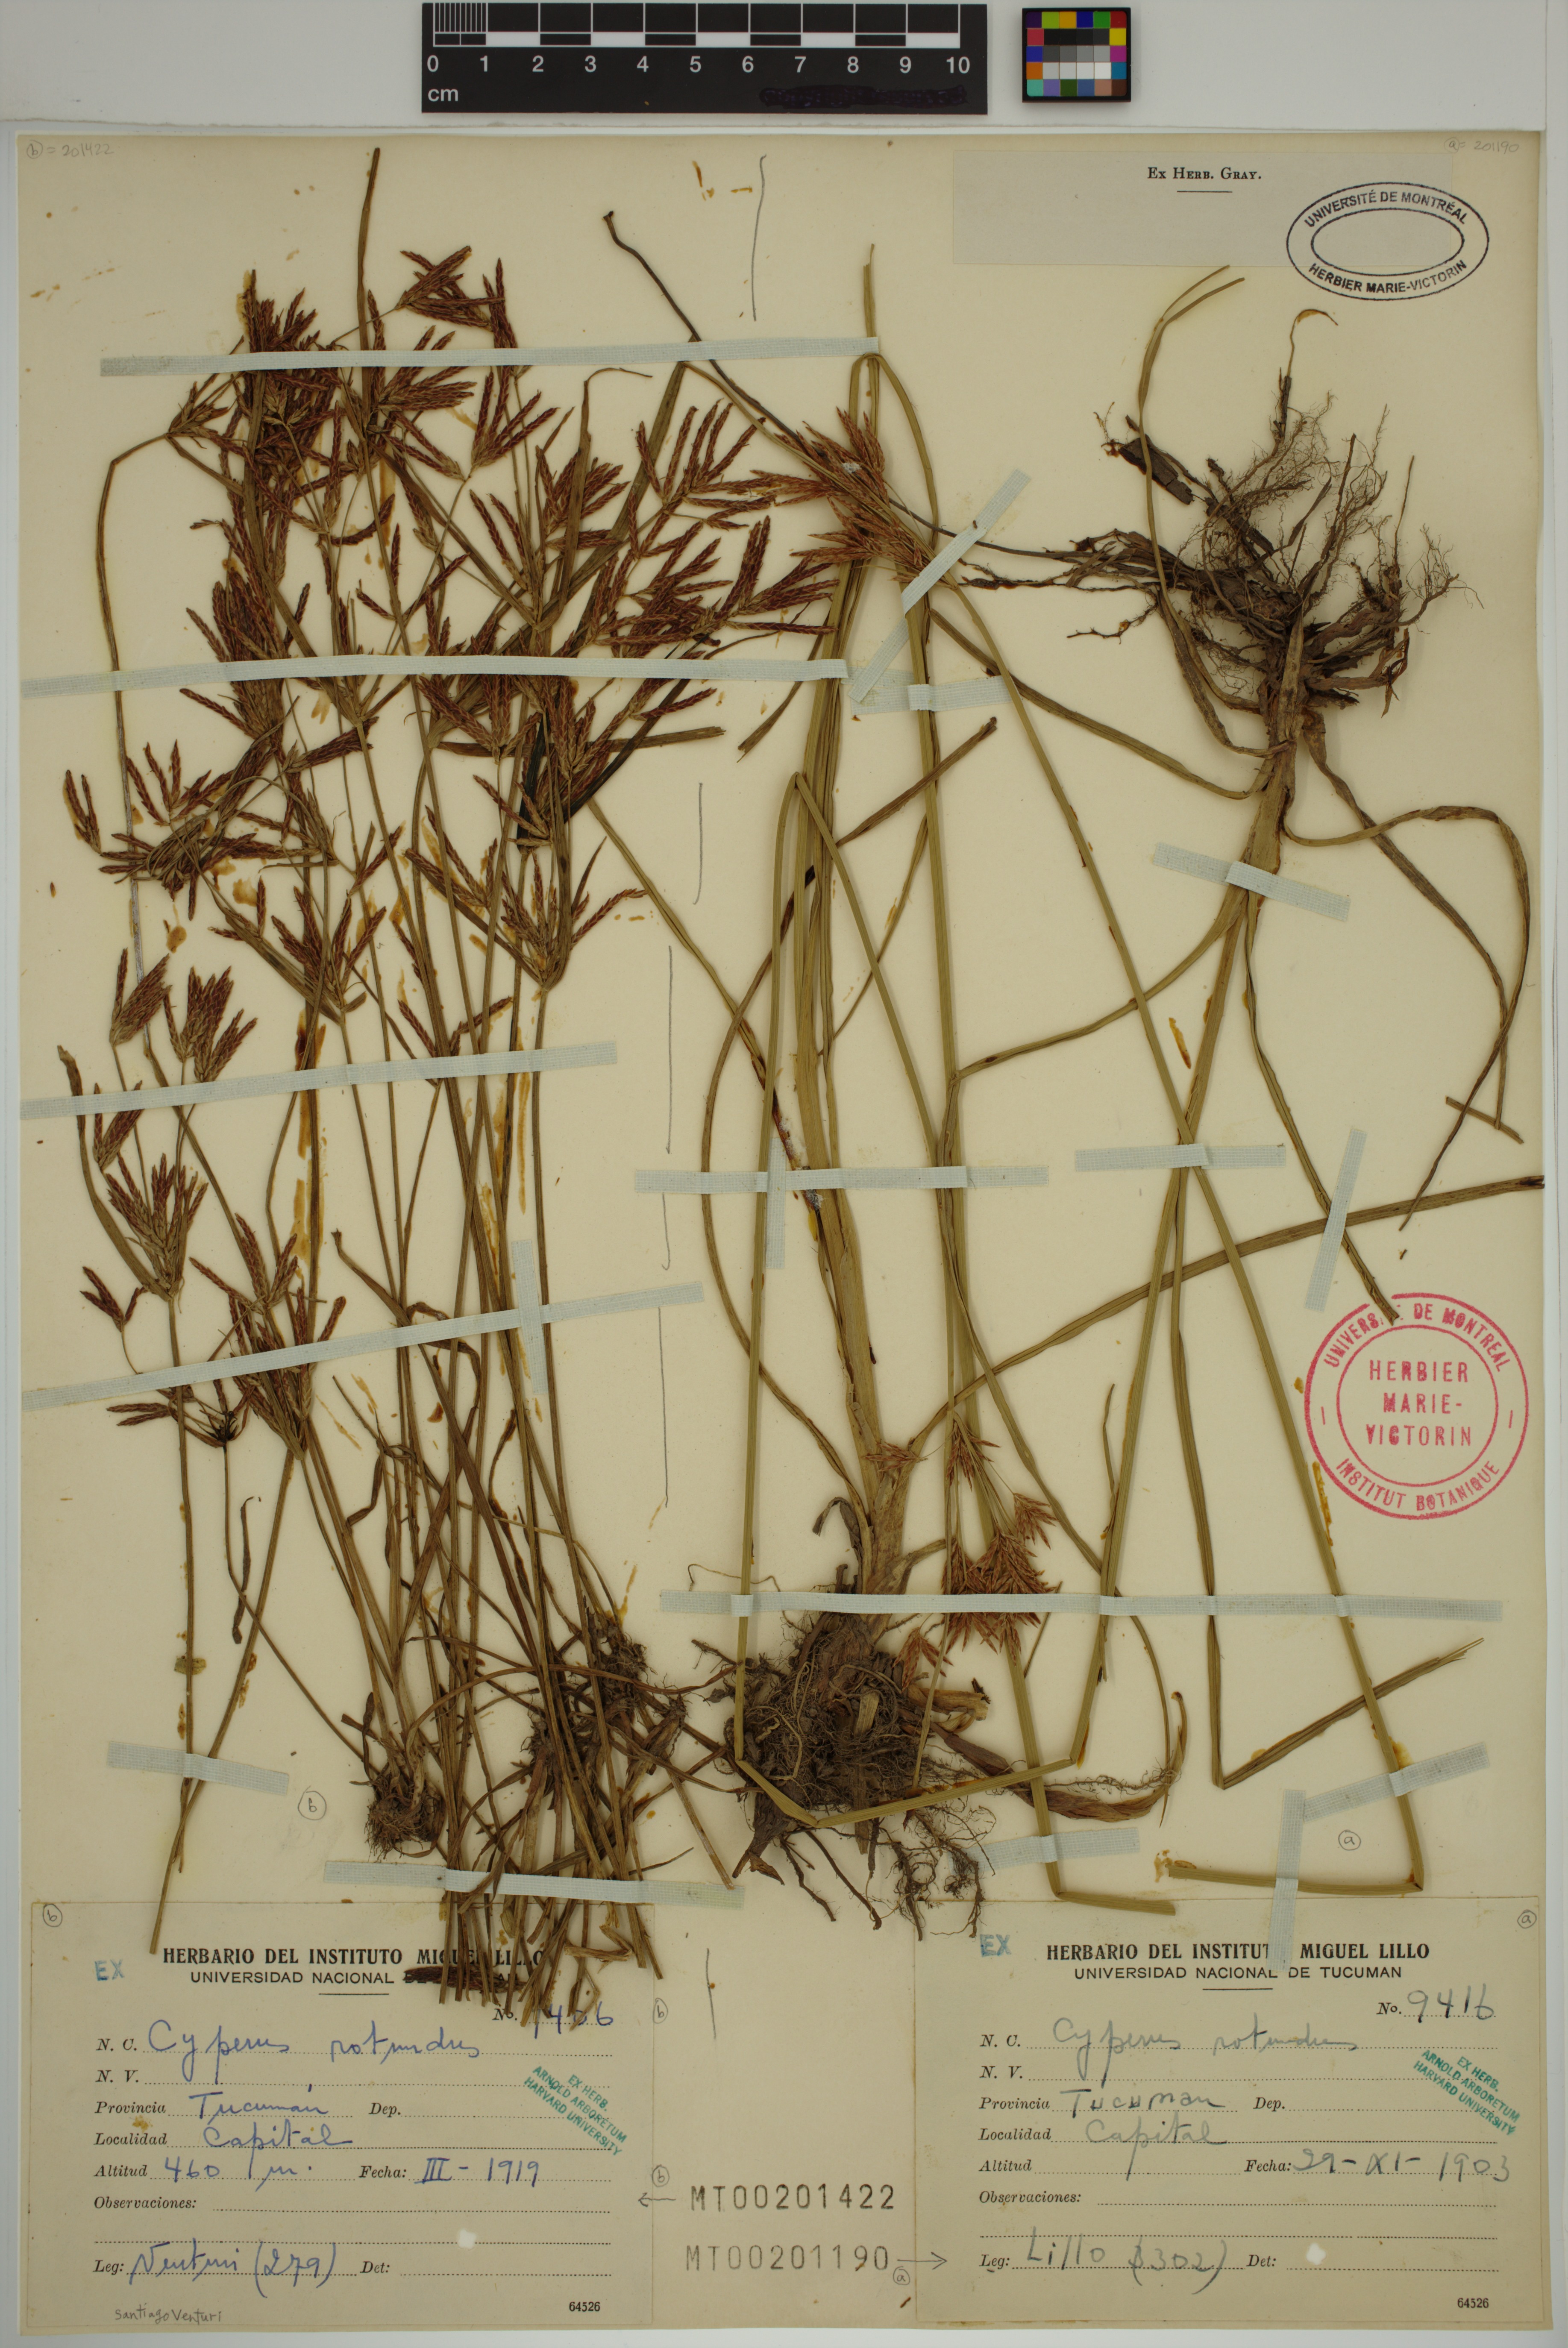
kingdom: Plantae
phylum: Tracheophyta
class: Liliopsida
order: Poales
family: Cyperaceae
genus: Cyperus
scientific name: Cyperus rotundus
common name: Nutgrass
